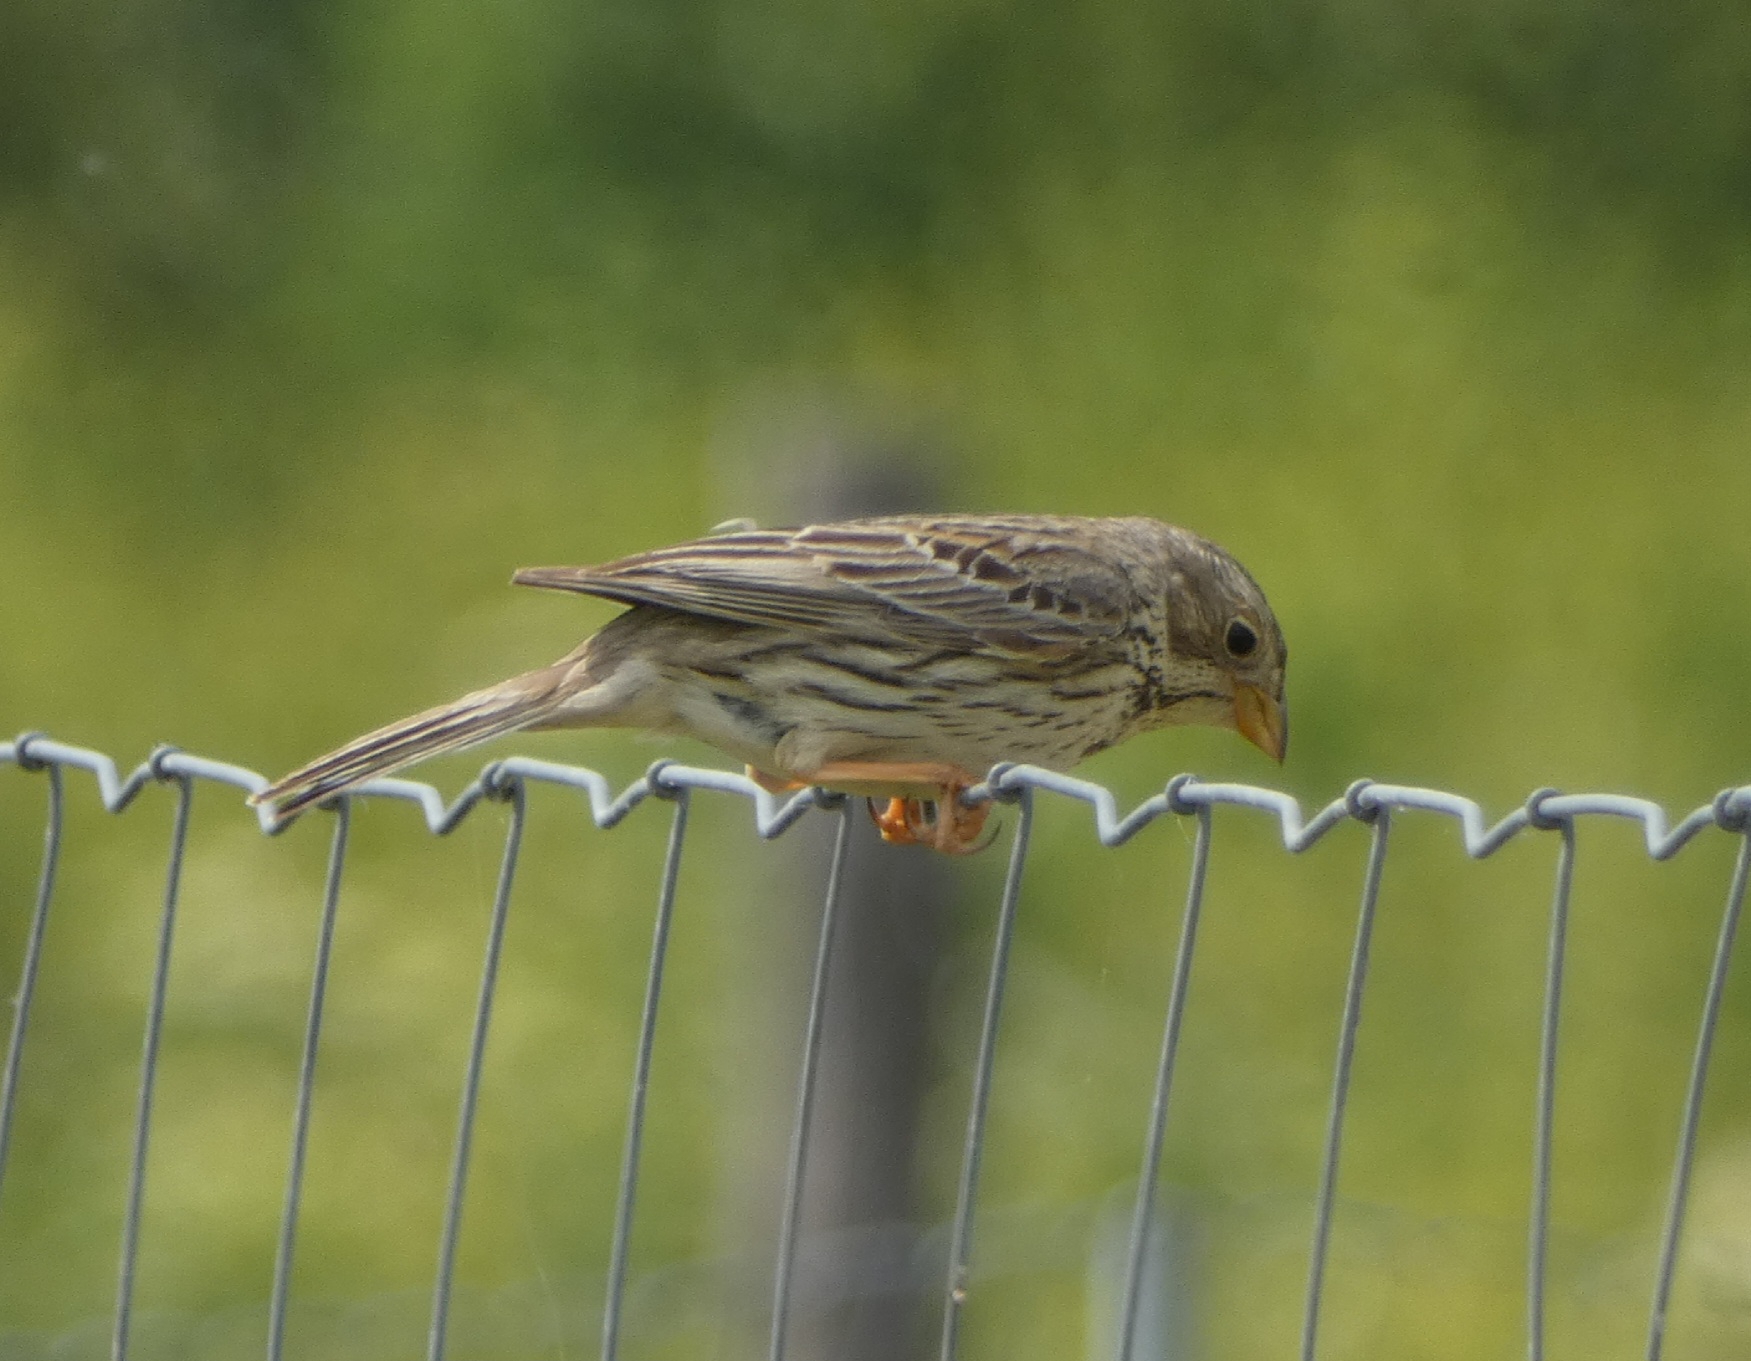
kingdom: Animalia
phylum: Chordata
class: Aves
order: Passeriformes
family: Emberizidae
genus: Emberiza
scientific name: Emberiza calandra
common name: Bomlærke
